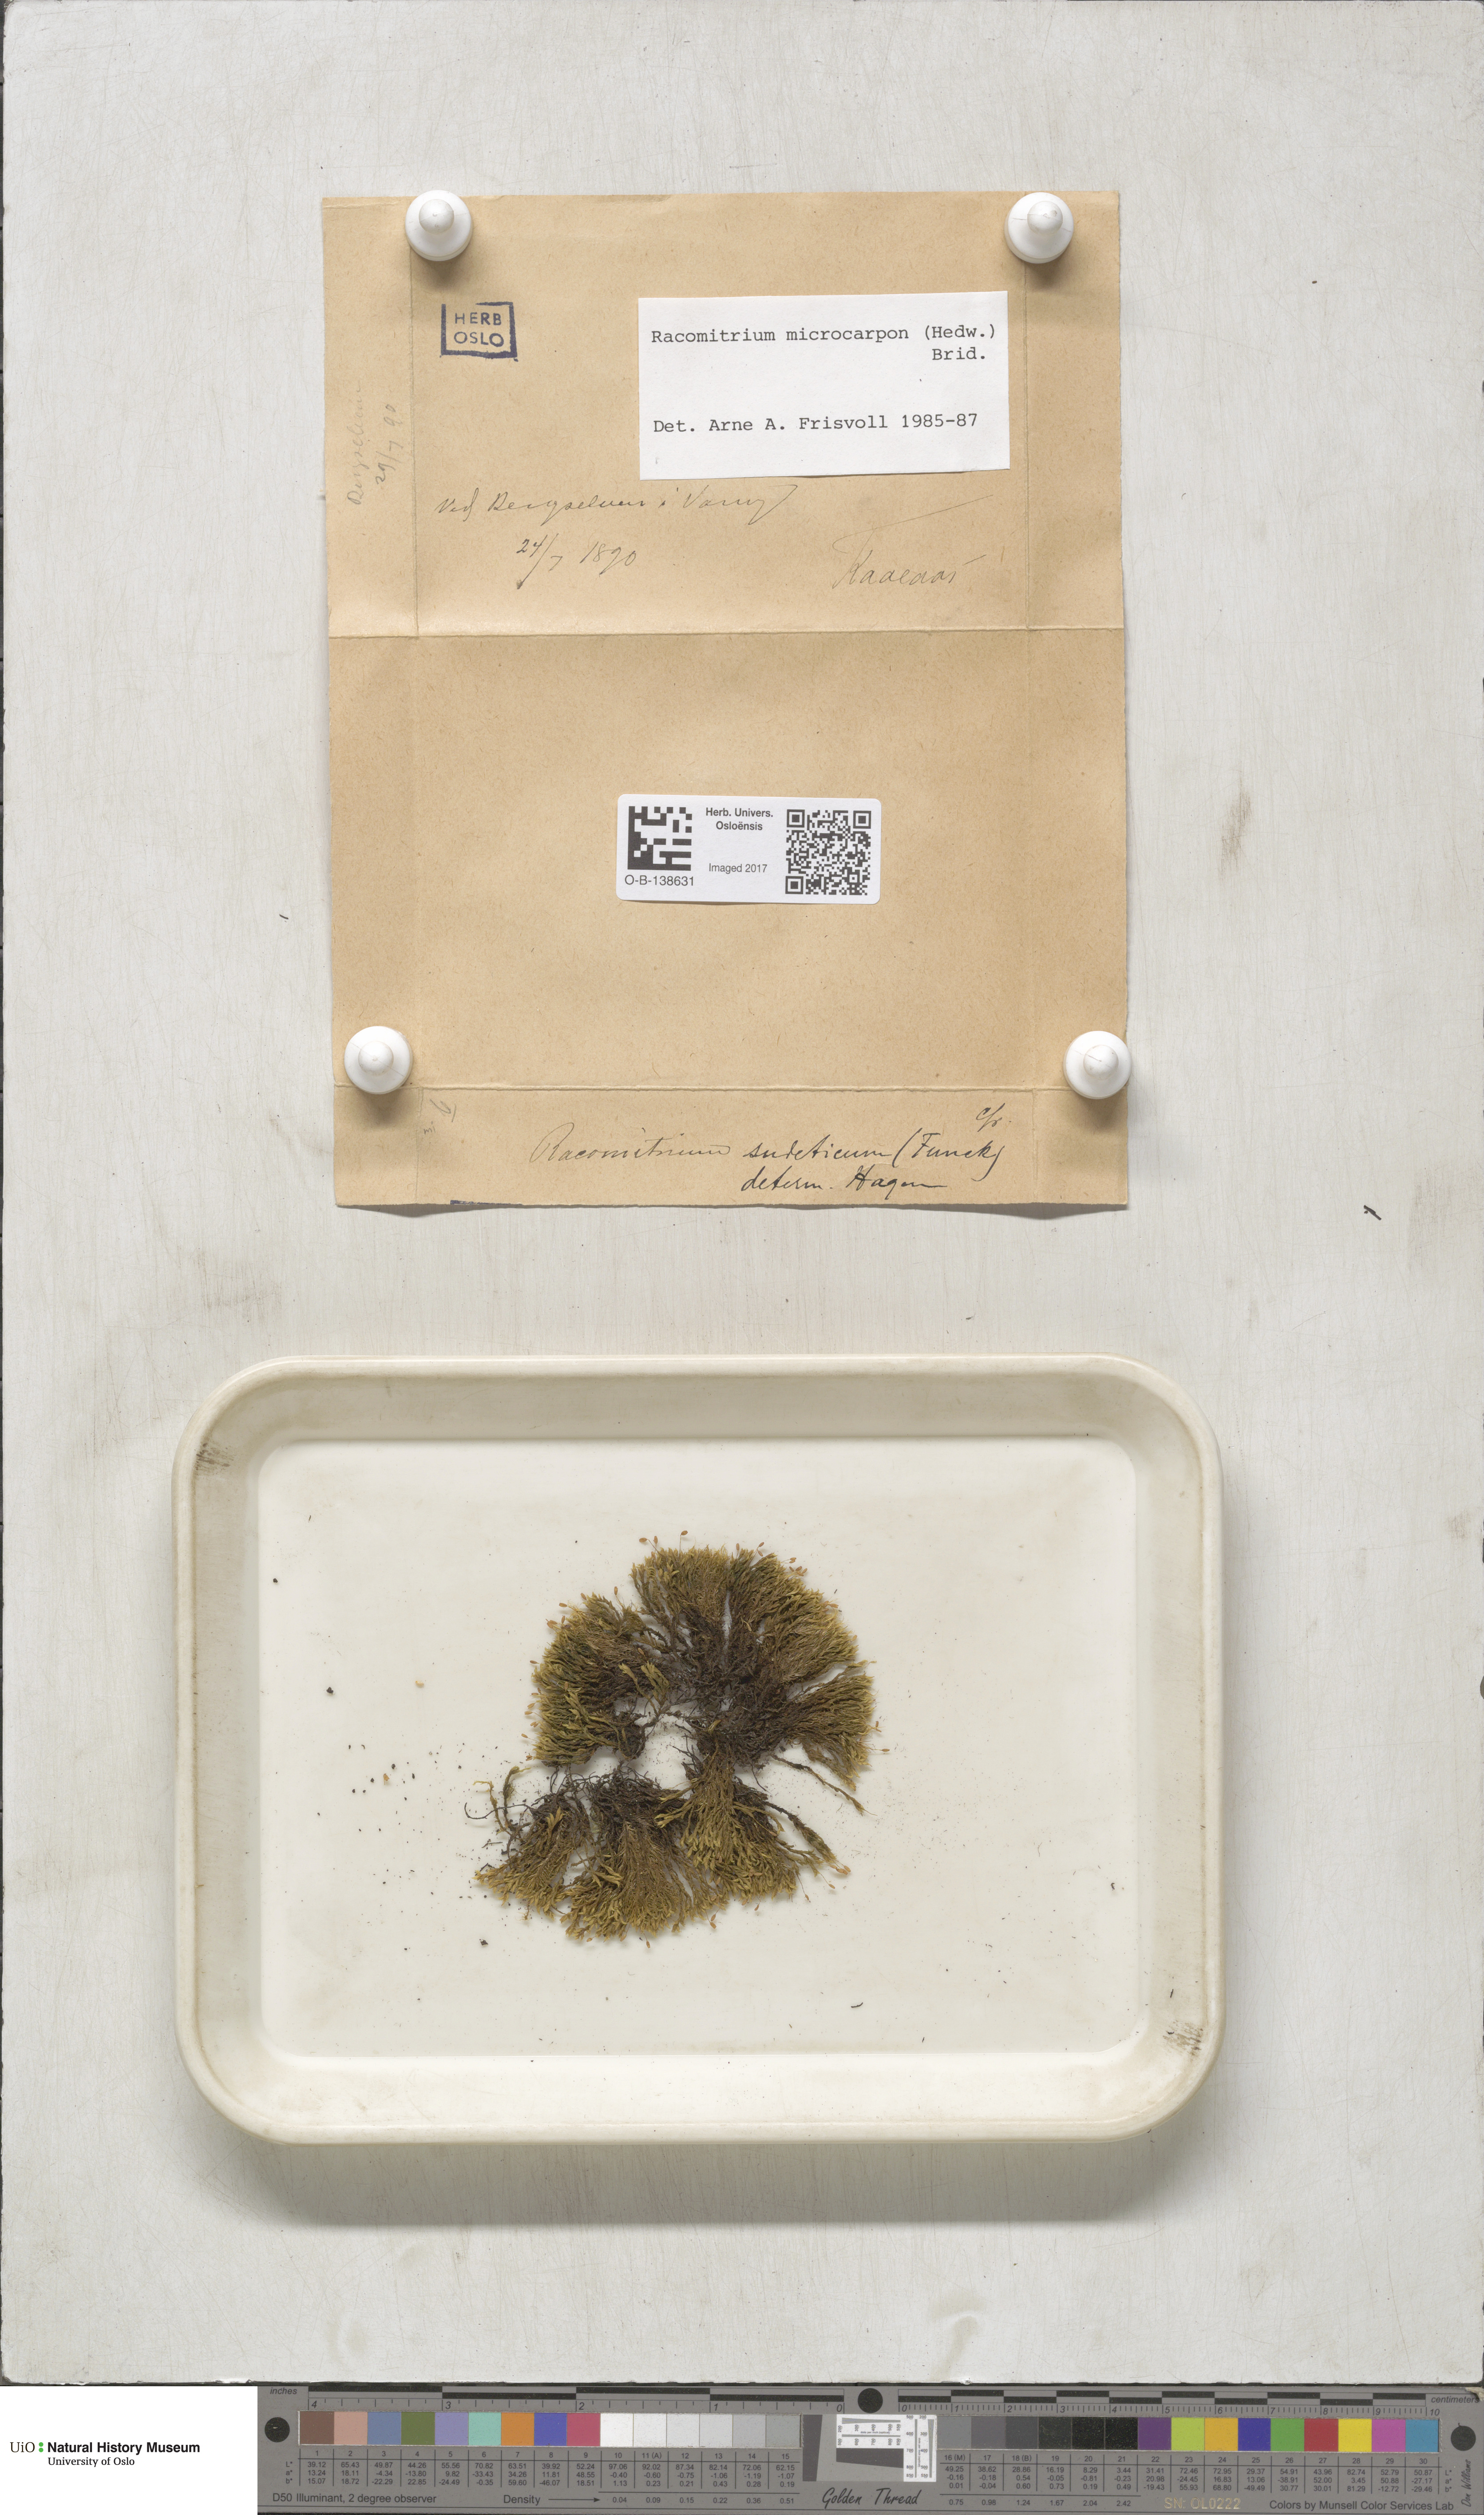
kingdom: Plantae
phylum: Bryophyta
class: Bryopsida
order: Grimmiales
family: Grimmiaceae
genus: Bucklandiella
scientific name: Bucklandiella microcarpos
